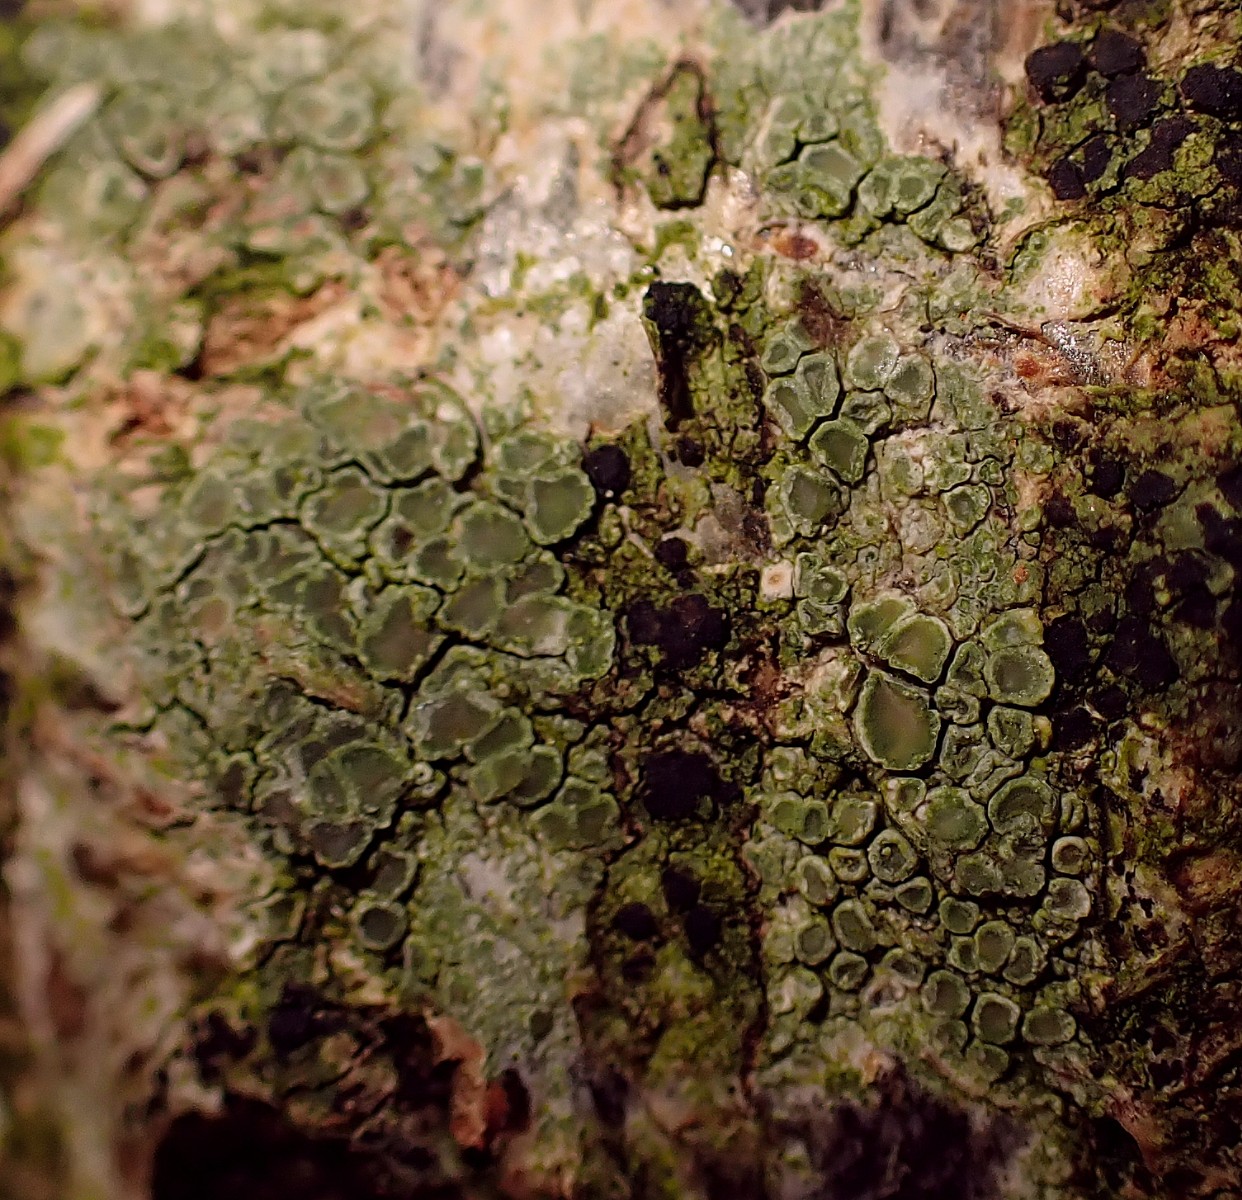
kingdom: Fungi
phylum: Ascomycota
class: Lecanoromycetes
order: Lecanorales
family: Lecanoraceae
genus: Lecanora
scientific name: Lecanora chlarotera
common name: brun kantskivelav
